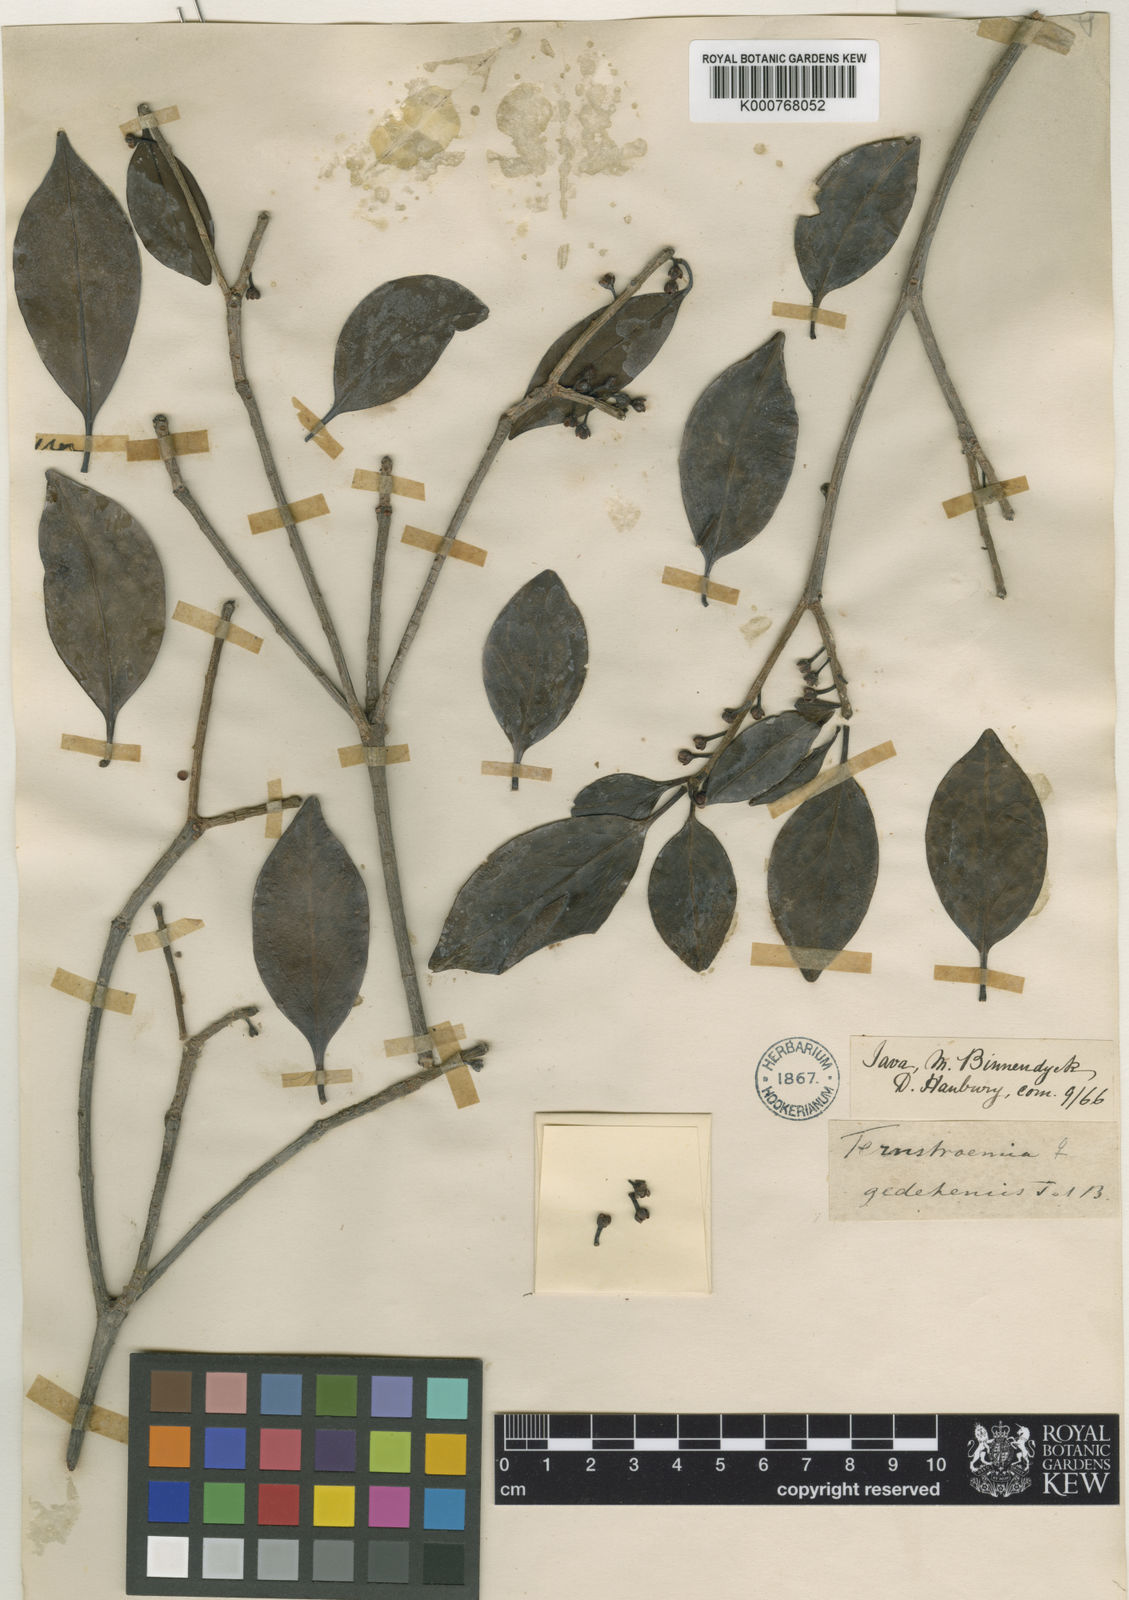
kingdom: Plantae
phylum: Tracheophyta
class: Magnoliopsida
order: Ericales
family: Pentaphylacaceae
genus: Ternstroemia
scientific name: Ternstroemia
